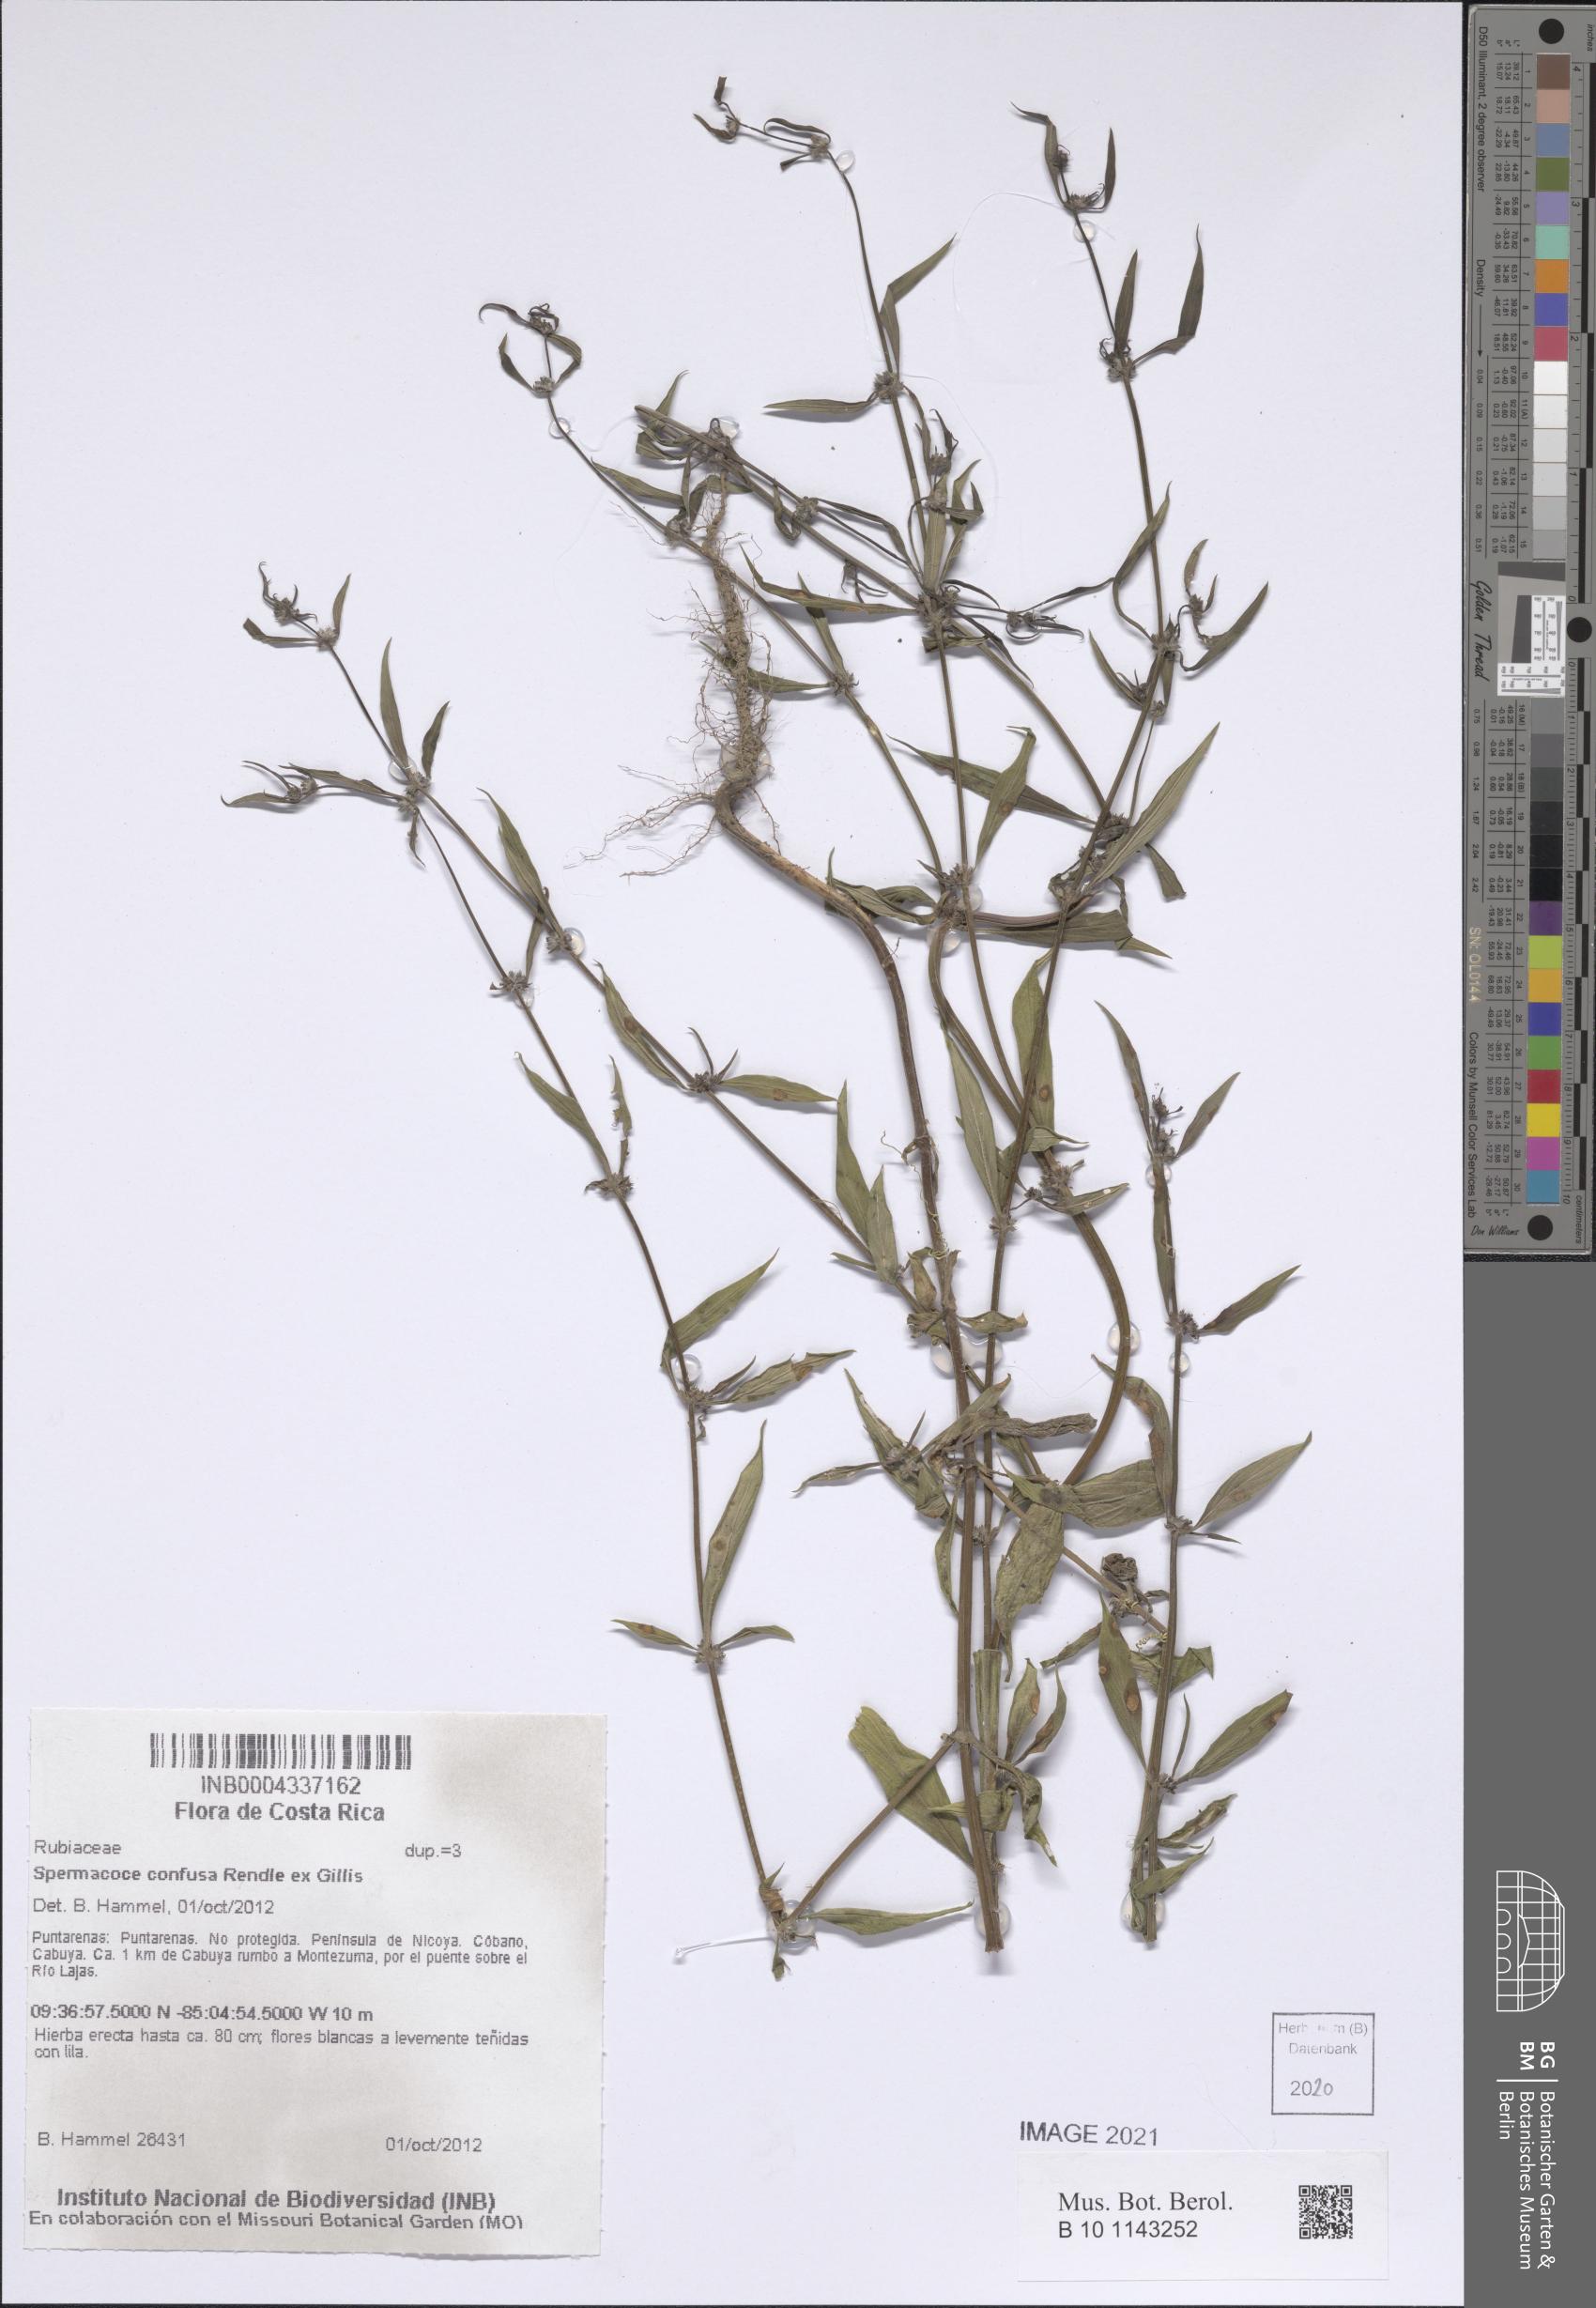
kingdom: Plantae
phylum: Tracheophyta
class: Magnoliopsida
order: Gentianales
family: Rubiaceae
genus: Spermacoce
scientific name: Spermacoce confusa
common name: Iron-grass
